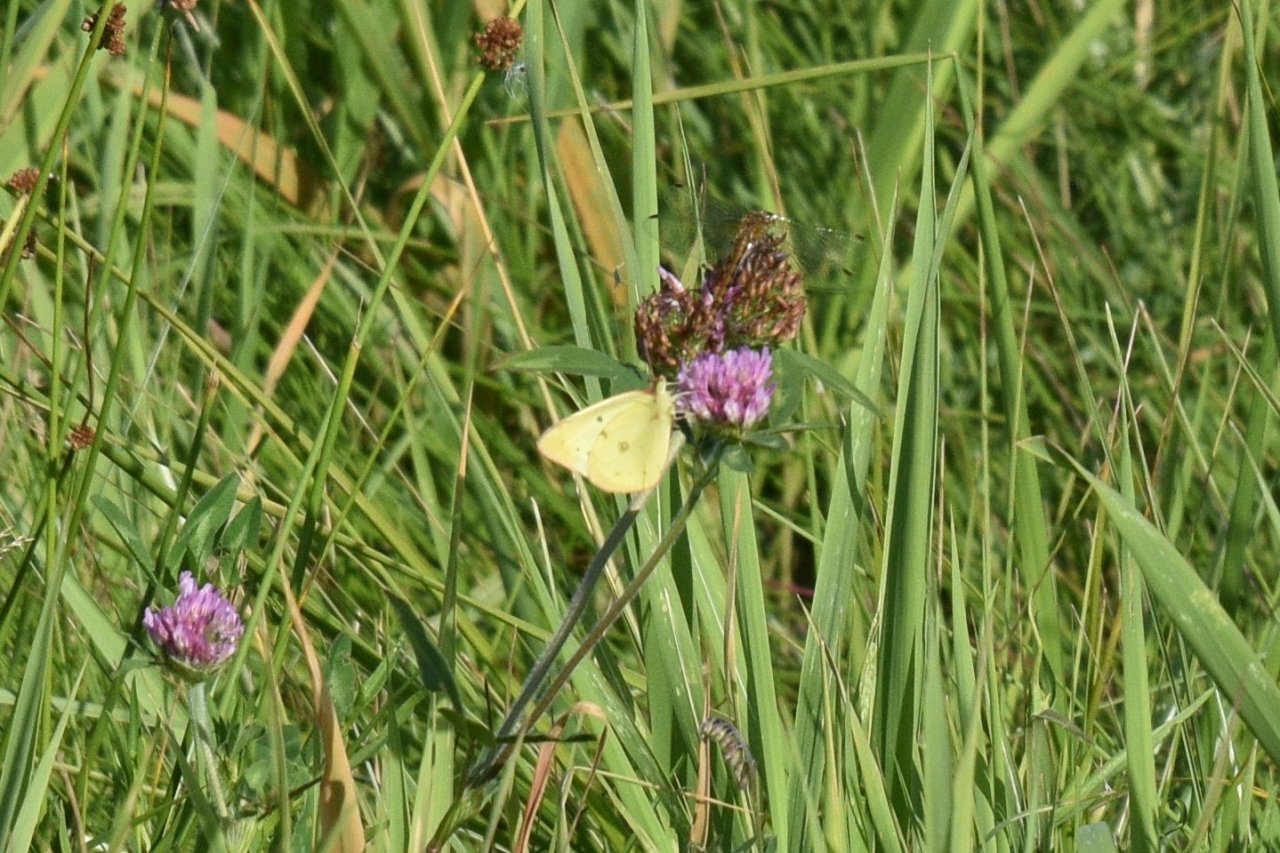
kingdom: Animalia
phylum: Arthropoda
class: Insecta
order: Lepidoptera
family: Pieridae
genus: Colias
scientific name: Colias philodice
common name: Clouded Sulphur
